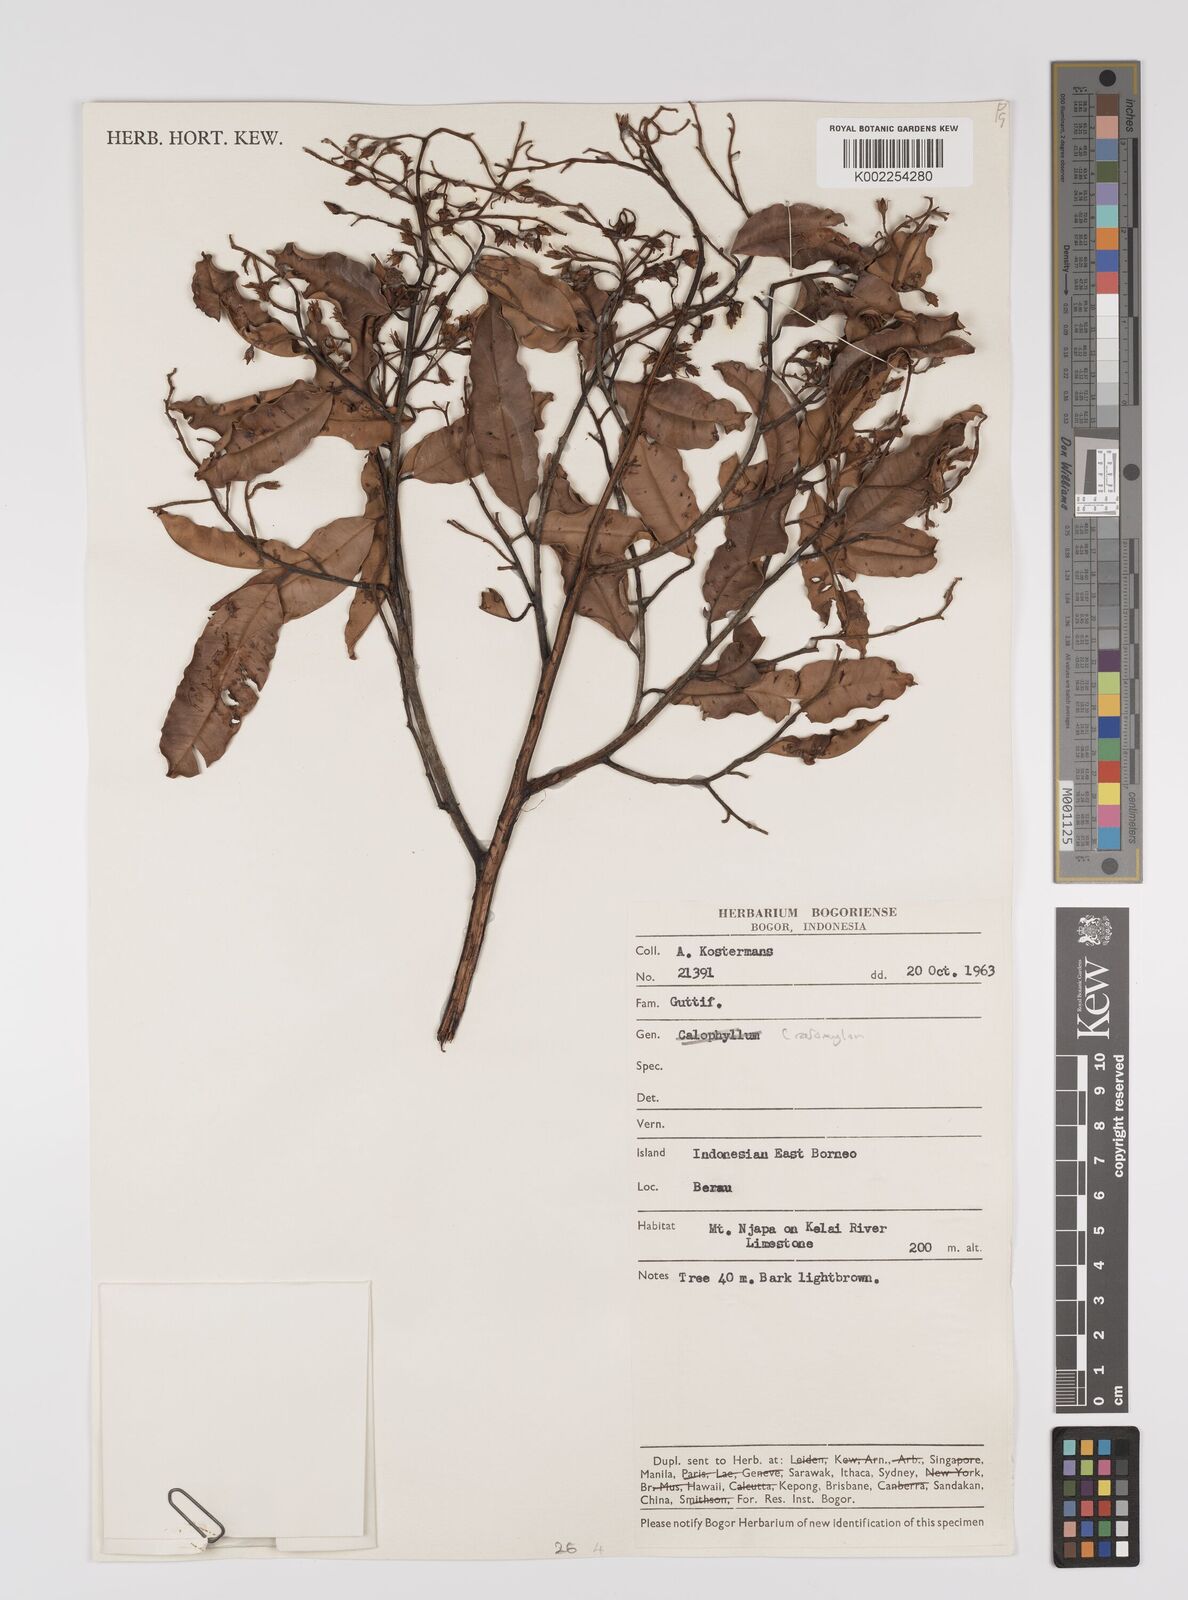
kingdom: Plantae
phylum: Tracheophyta
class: Magnoliopsida
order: Malpighiales
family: Hypericaceae
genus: Cratoxylum
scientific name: Cratoxylum
